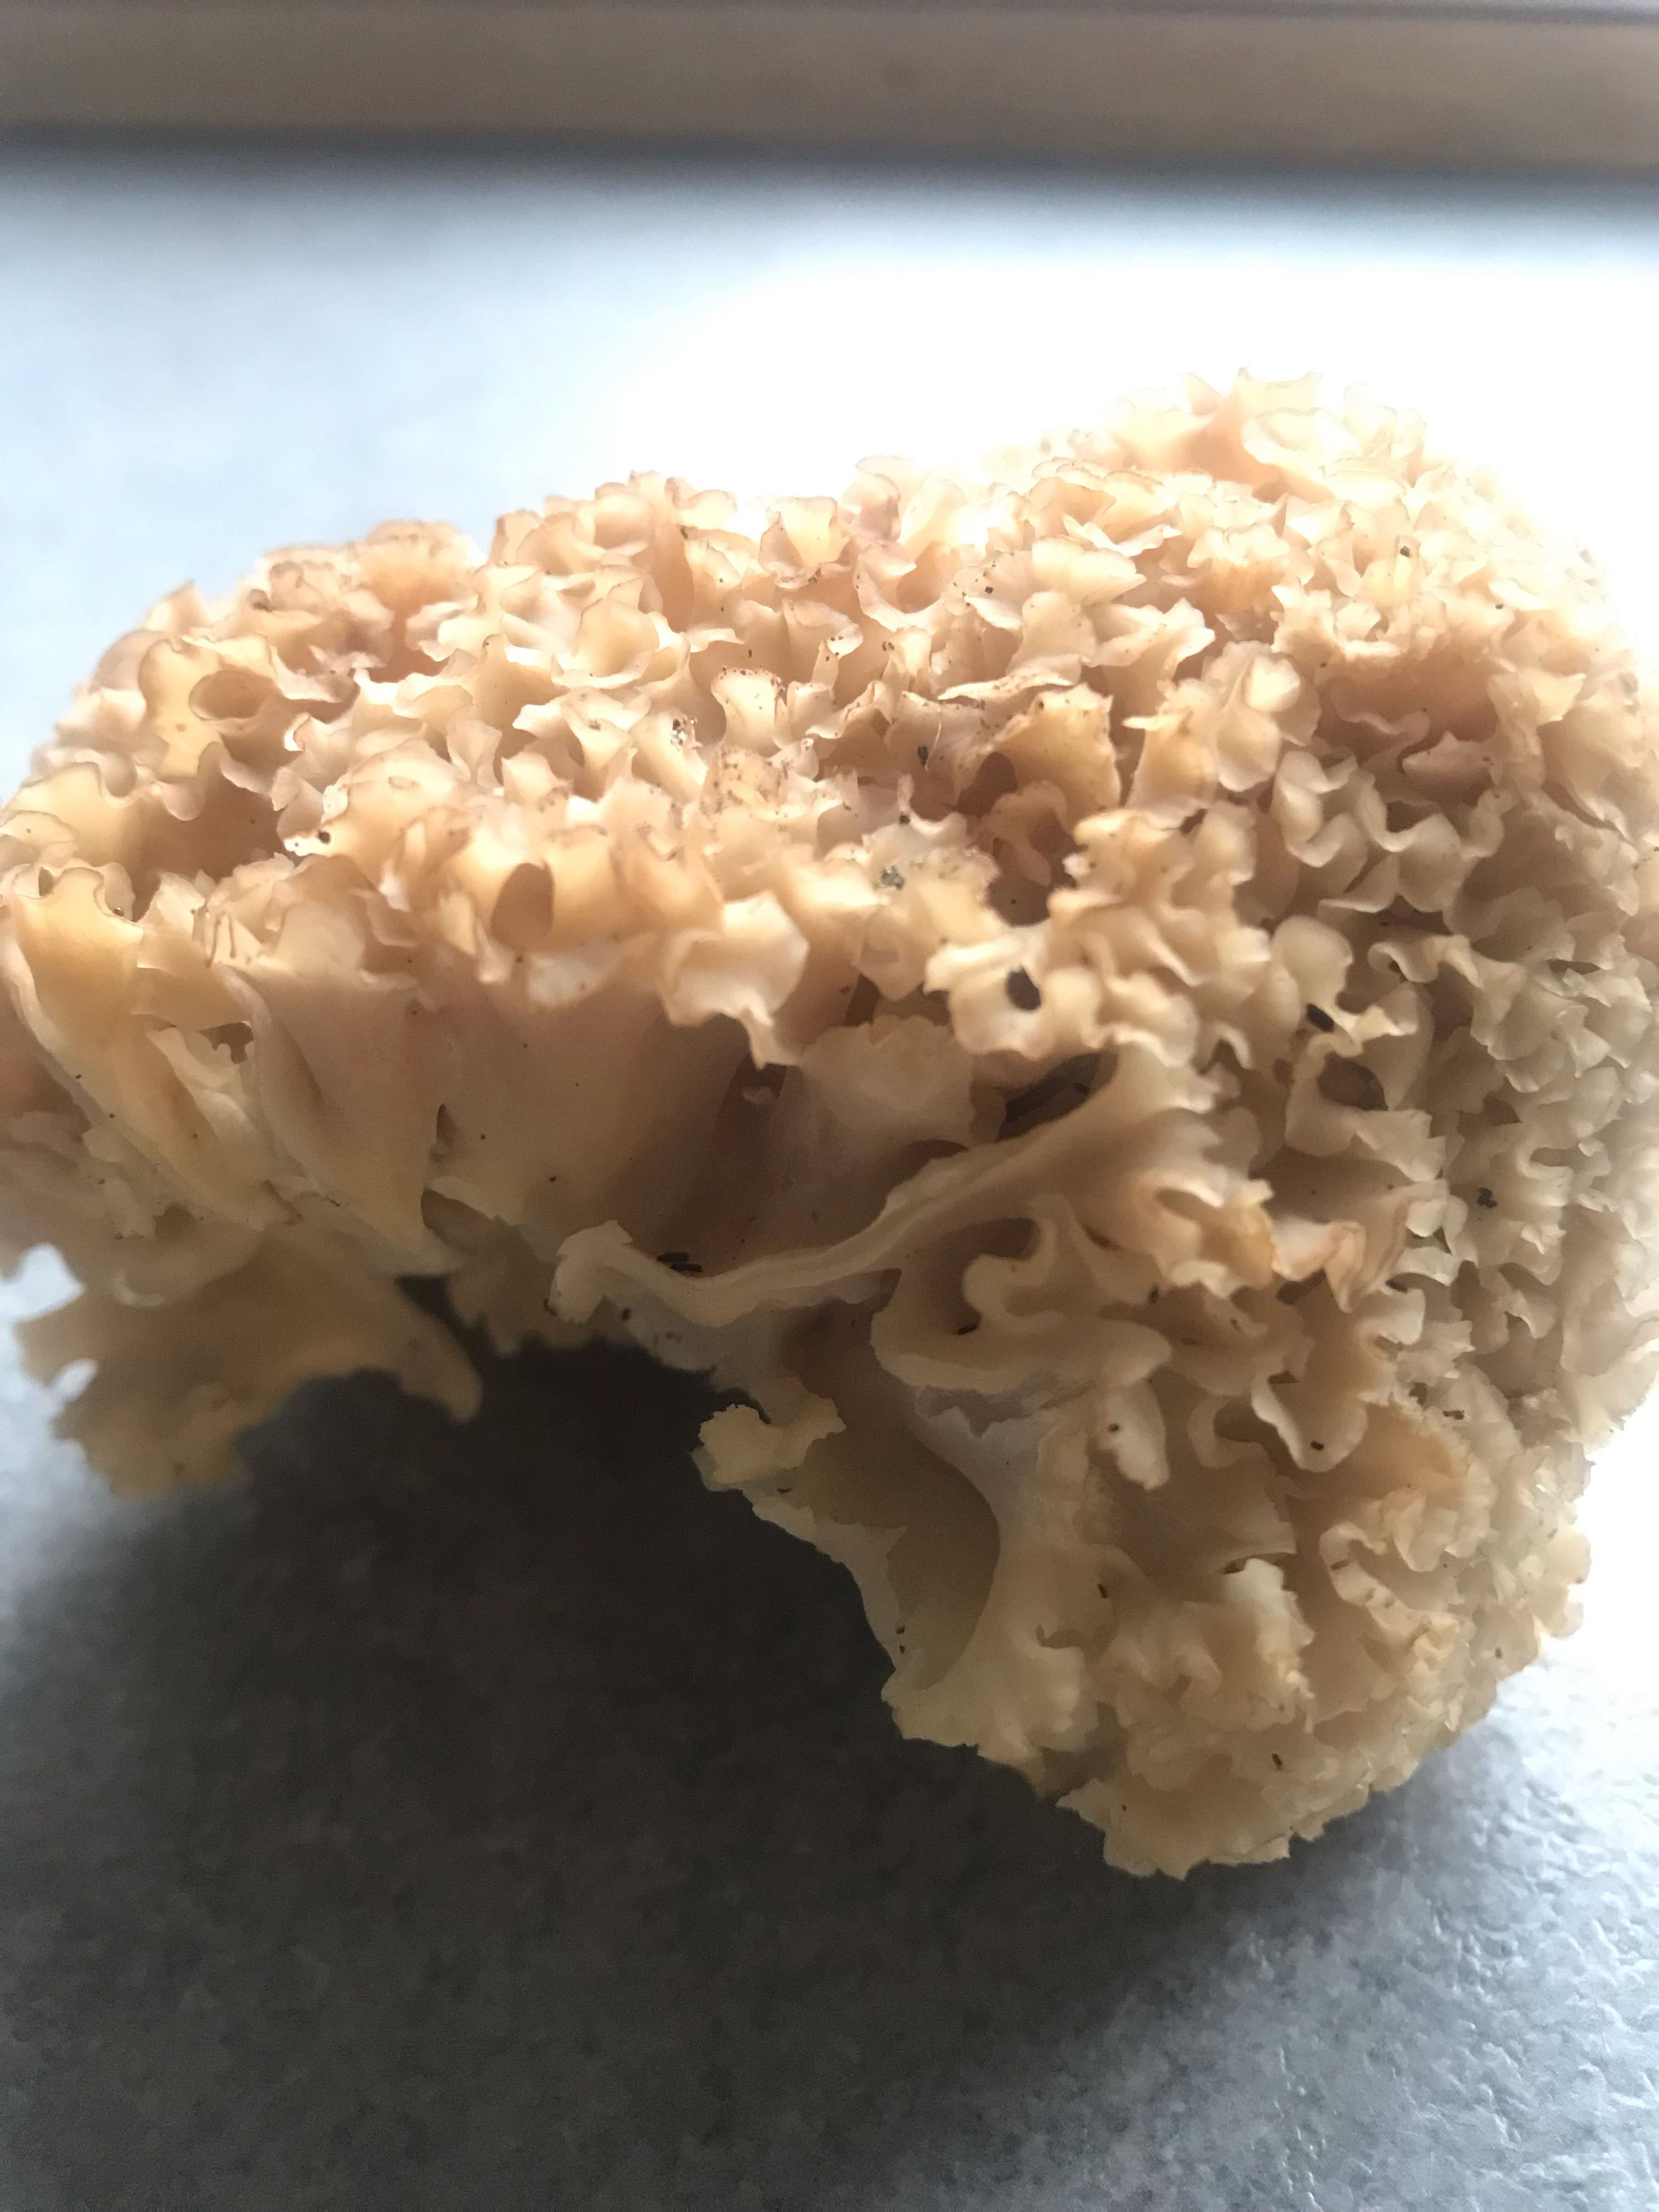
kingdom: Fungi
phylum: Basidiomycota
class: Agaricomycetes
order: Polyporales
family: Sparassidaceae
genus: Sparassis
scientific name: Sparassis crispa
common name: kruset blomkålssvamp
